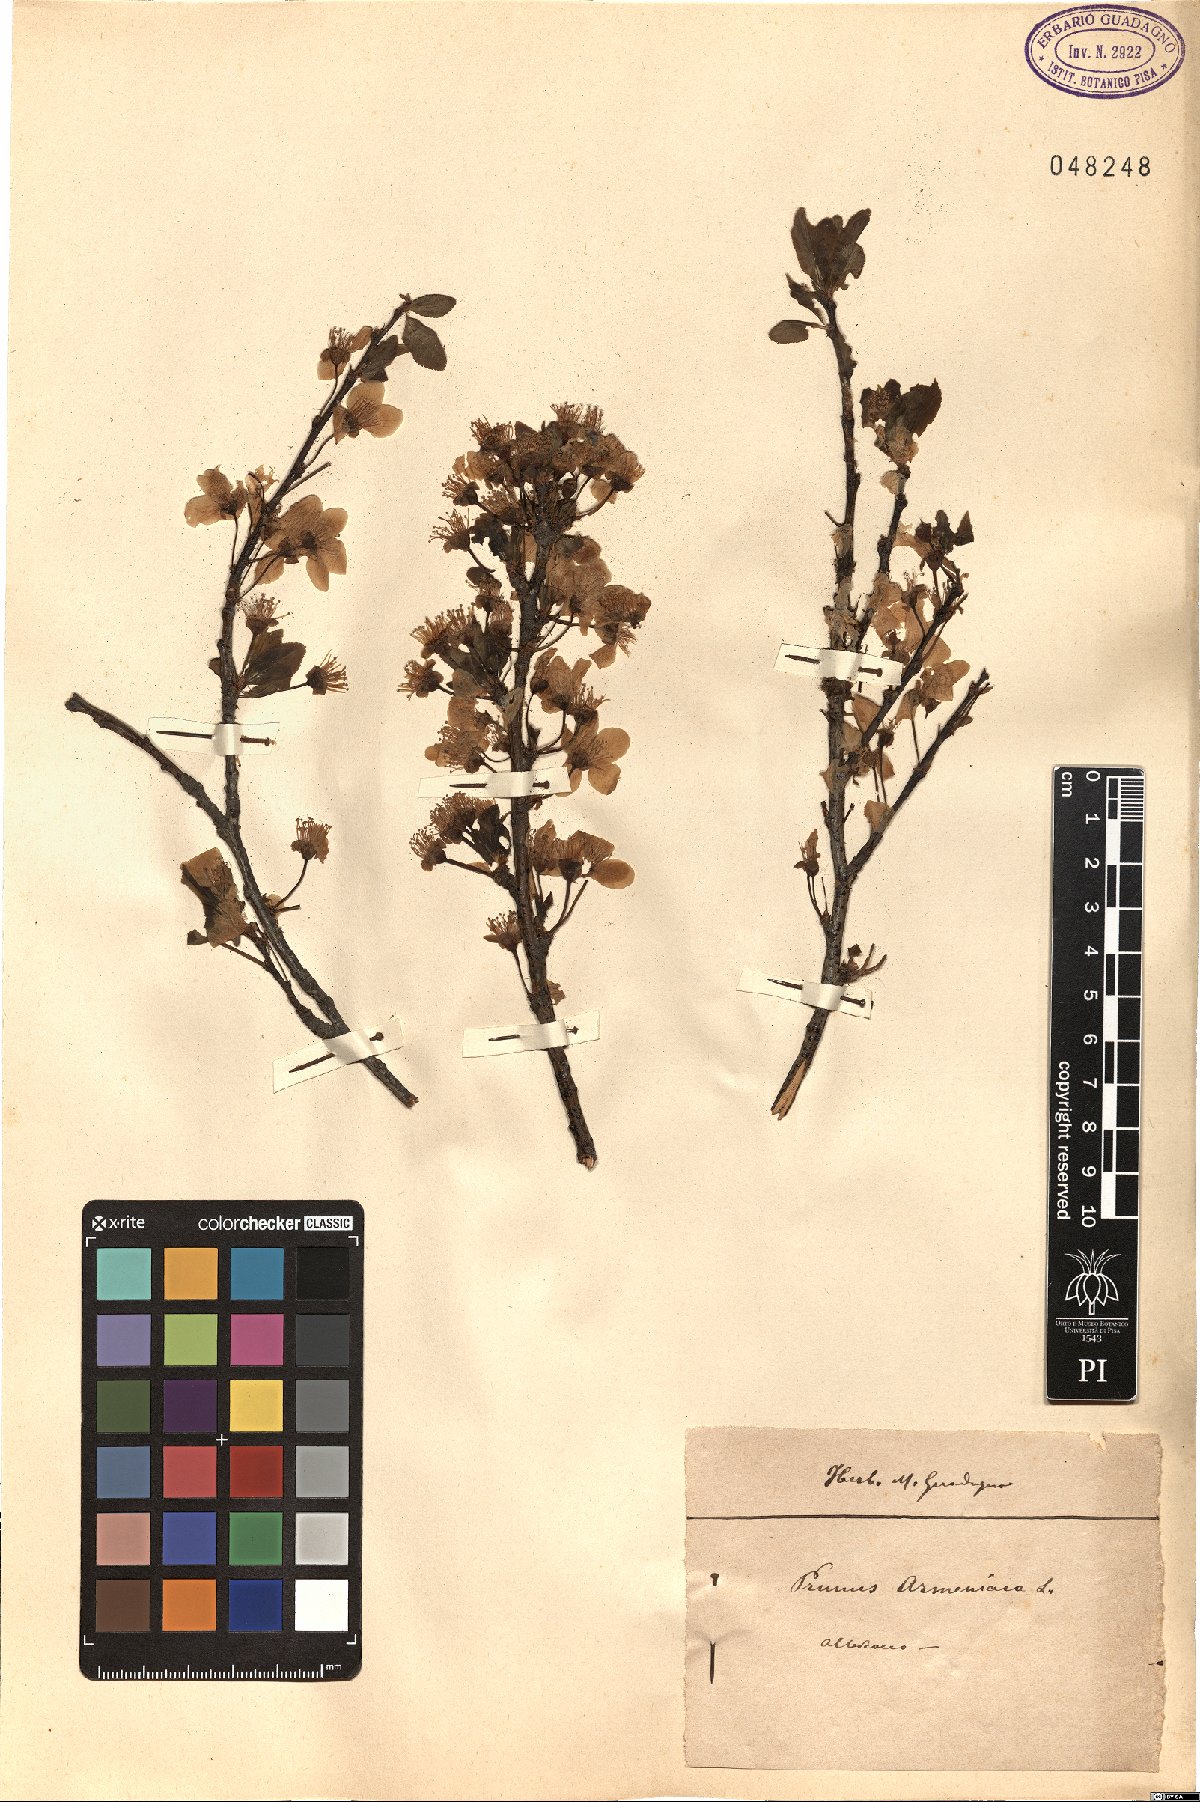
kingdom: Plantae
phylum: Tracheophyta
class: Magnoliopsida
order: Rosales
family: Rosaceae
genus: Prunus
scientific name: Prunus armeniaca
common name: Apricot
